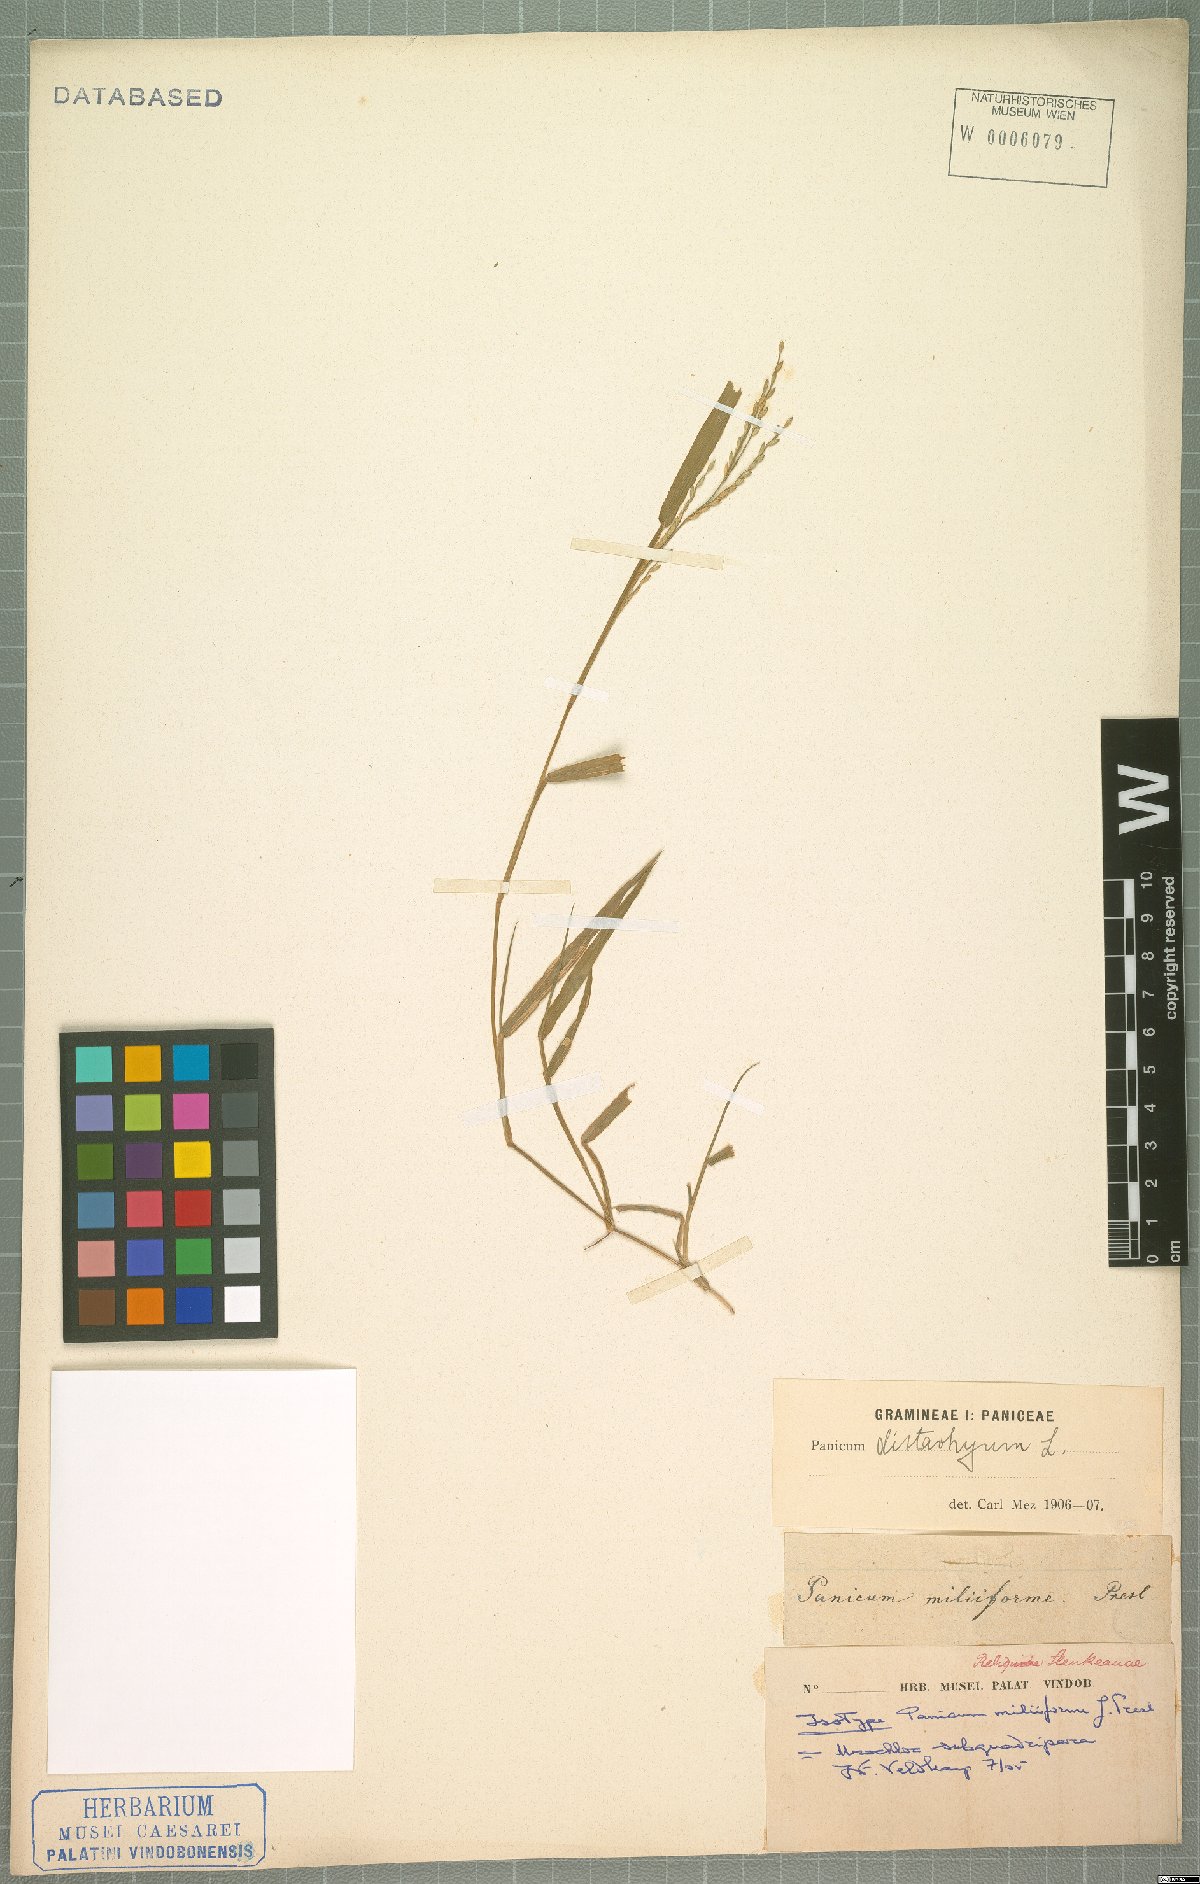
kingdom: Plantae
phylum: Tracheophyta
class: Liliopsida
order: Poales
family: Poaceae
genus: Urochloa
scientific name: Urochloa subquadripara
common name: Armgrass millet
